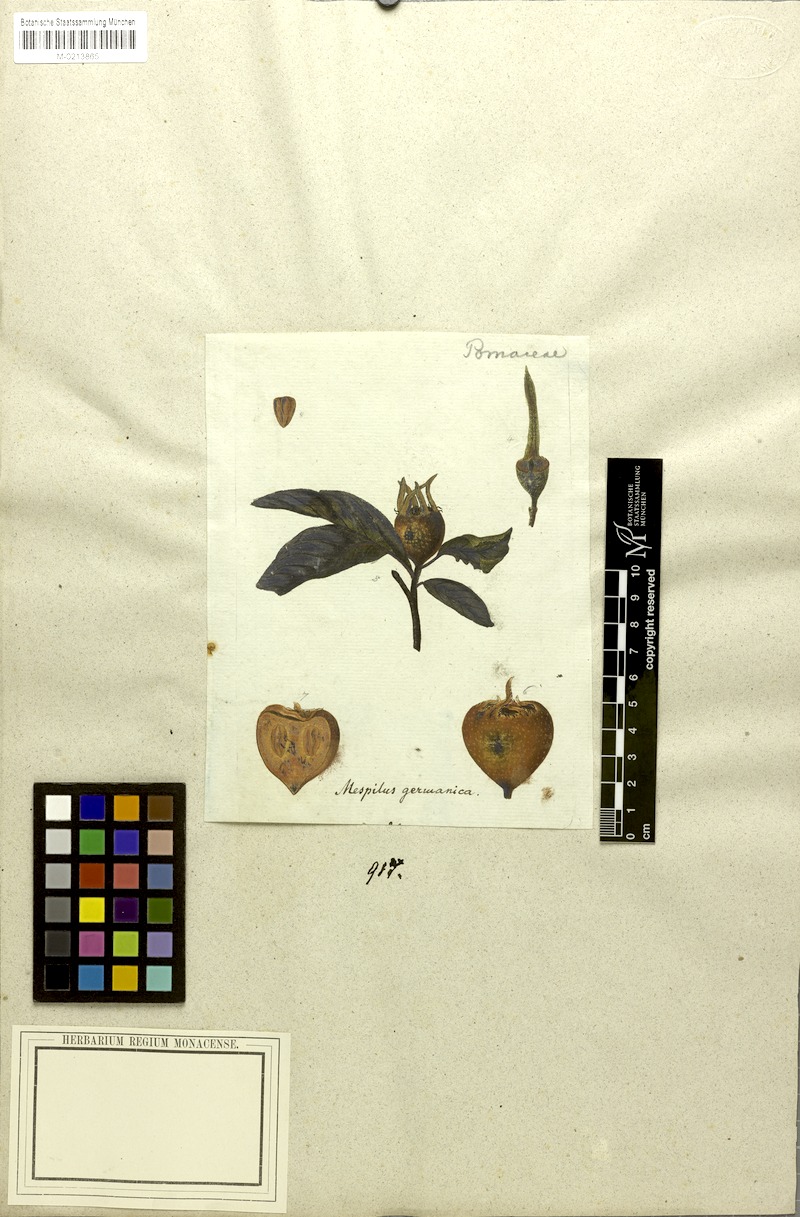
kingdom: Plantae
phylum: Tracheophyta
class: Magnoliopsida
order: Rosales
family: Rosaceae
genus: Mespilus
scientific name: Mespilus germanica
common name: Medlar
